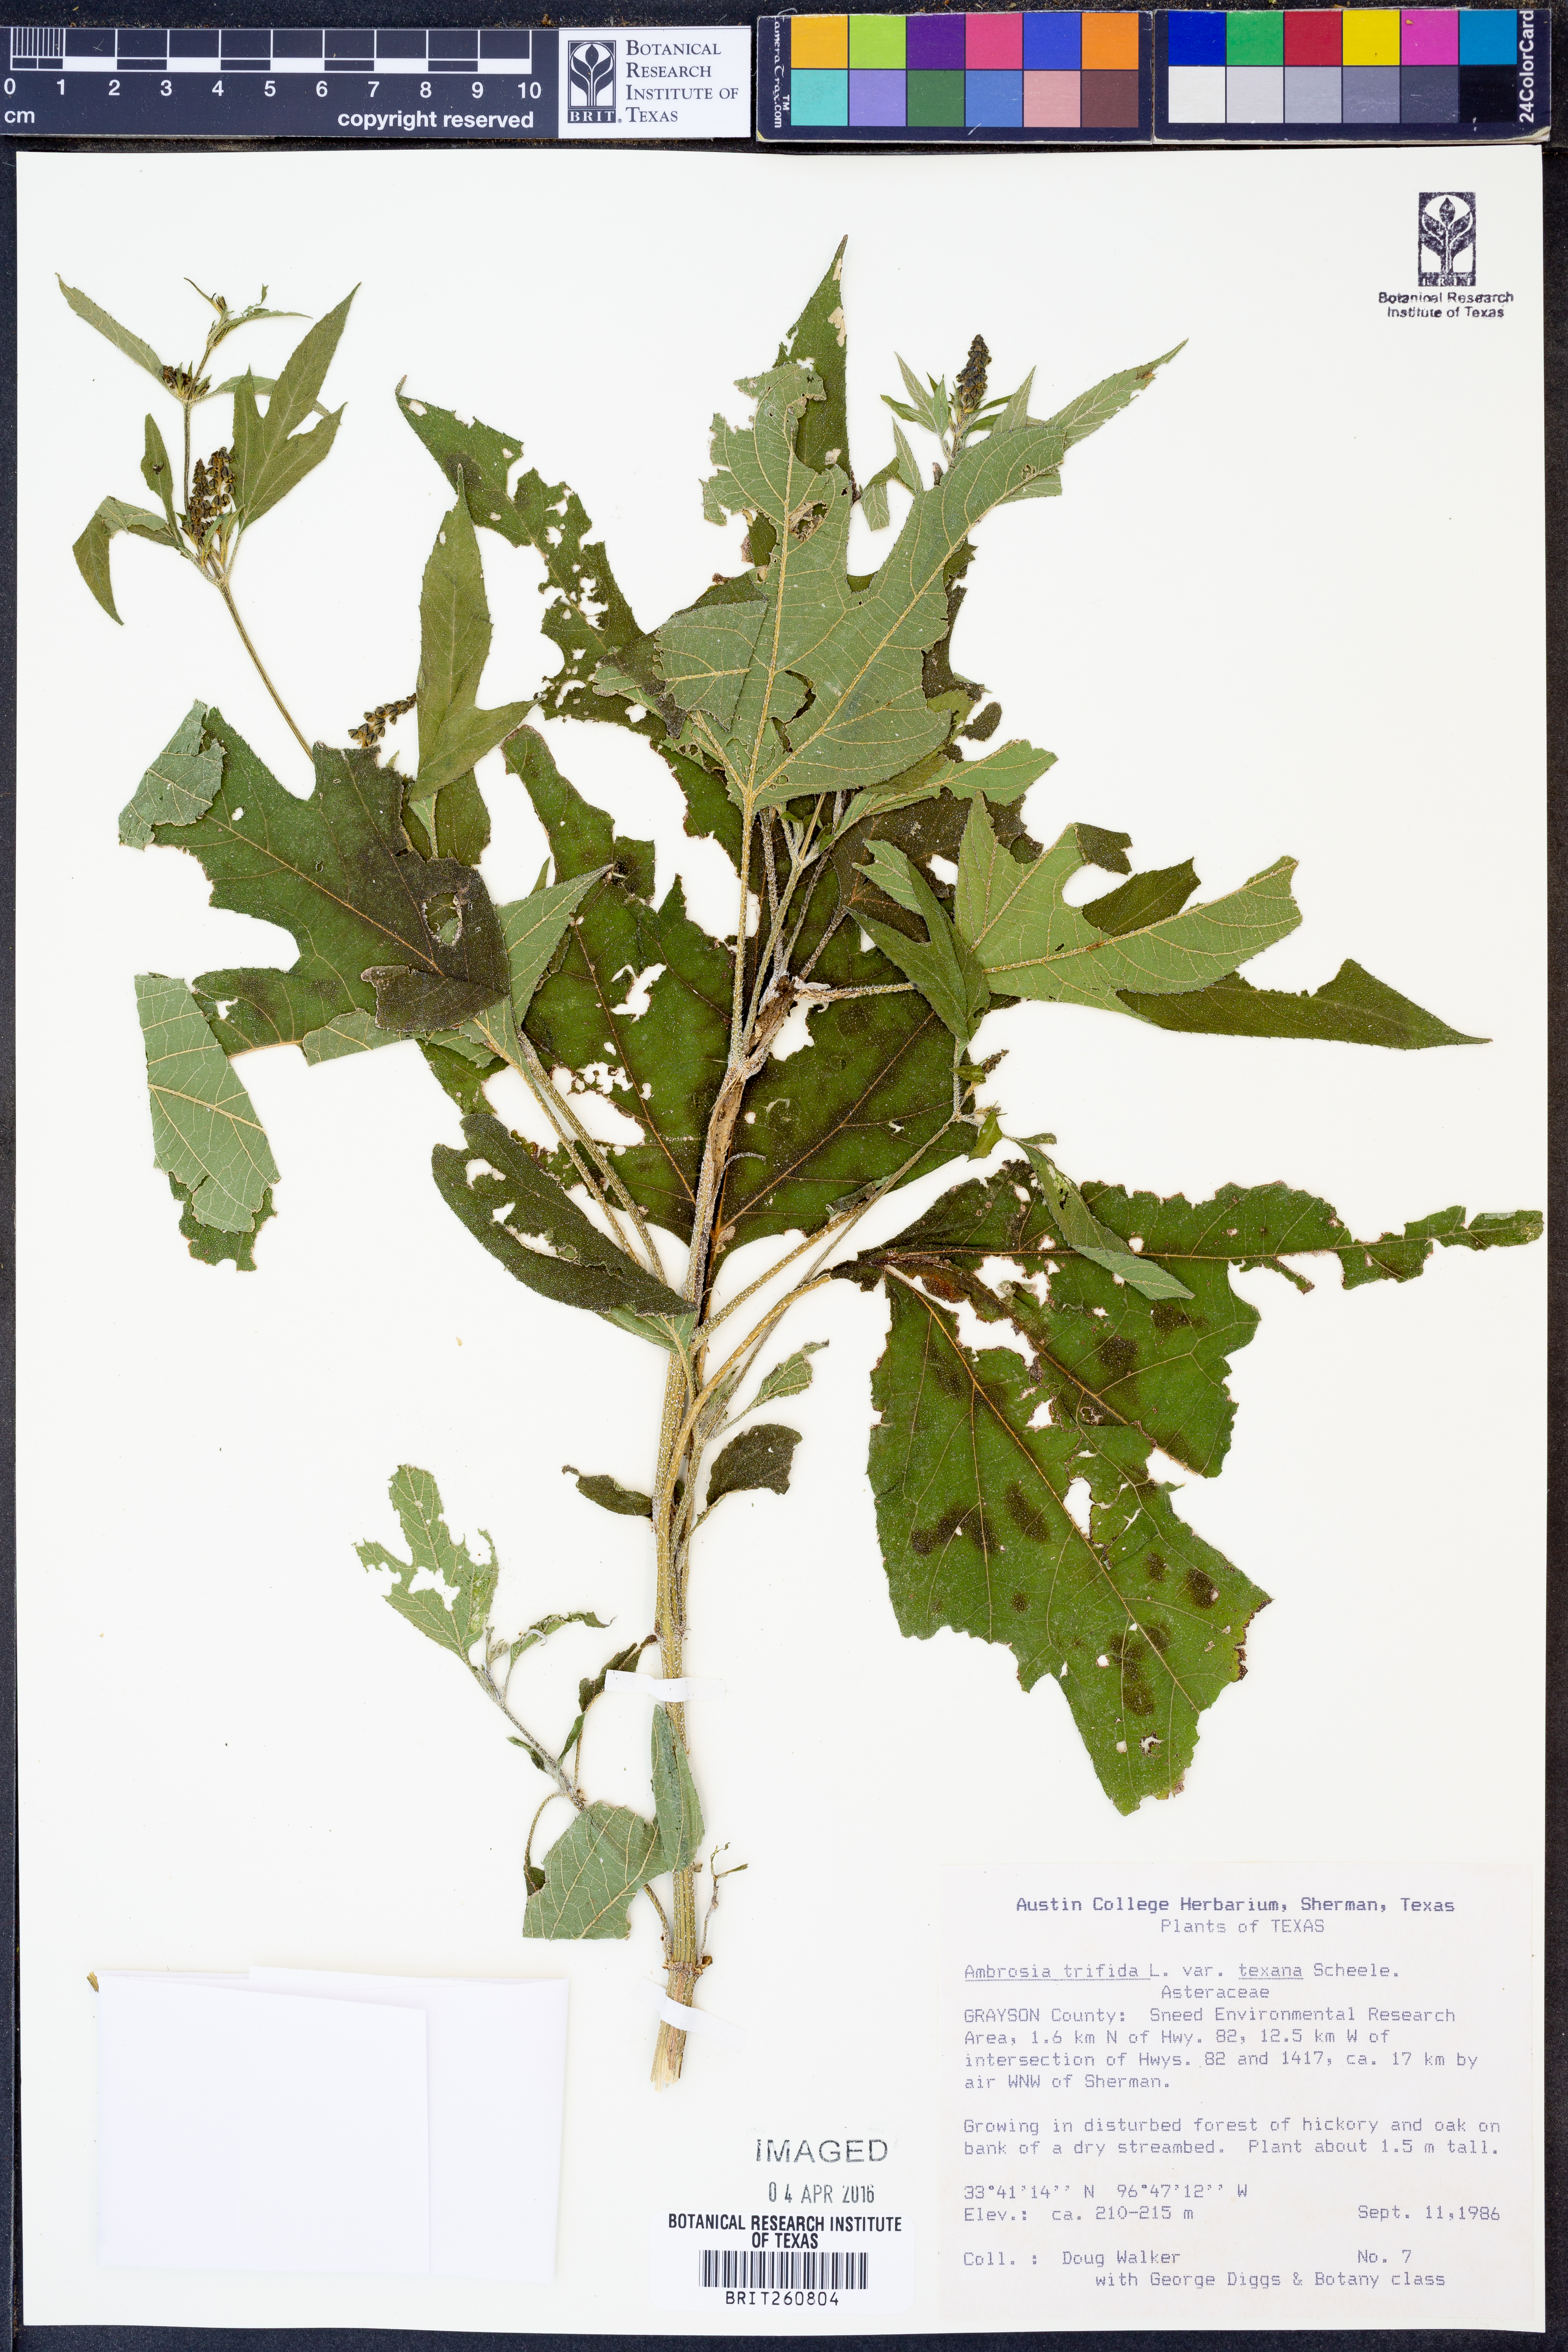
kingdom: Plantae
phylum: Tracheophyta
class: Magnoliopsida
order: Asterales
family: Asteraceae
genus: Ambrosia
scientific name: Ambrosia trifida
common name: Giant ragweed
